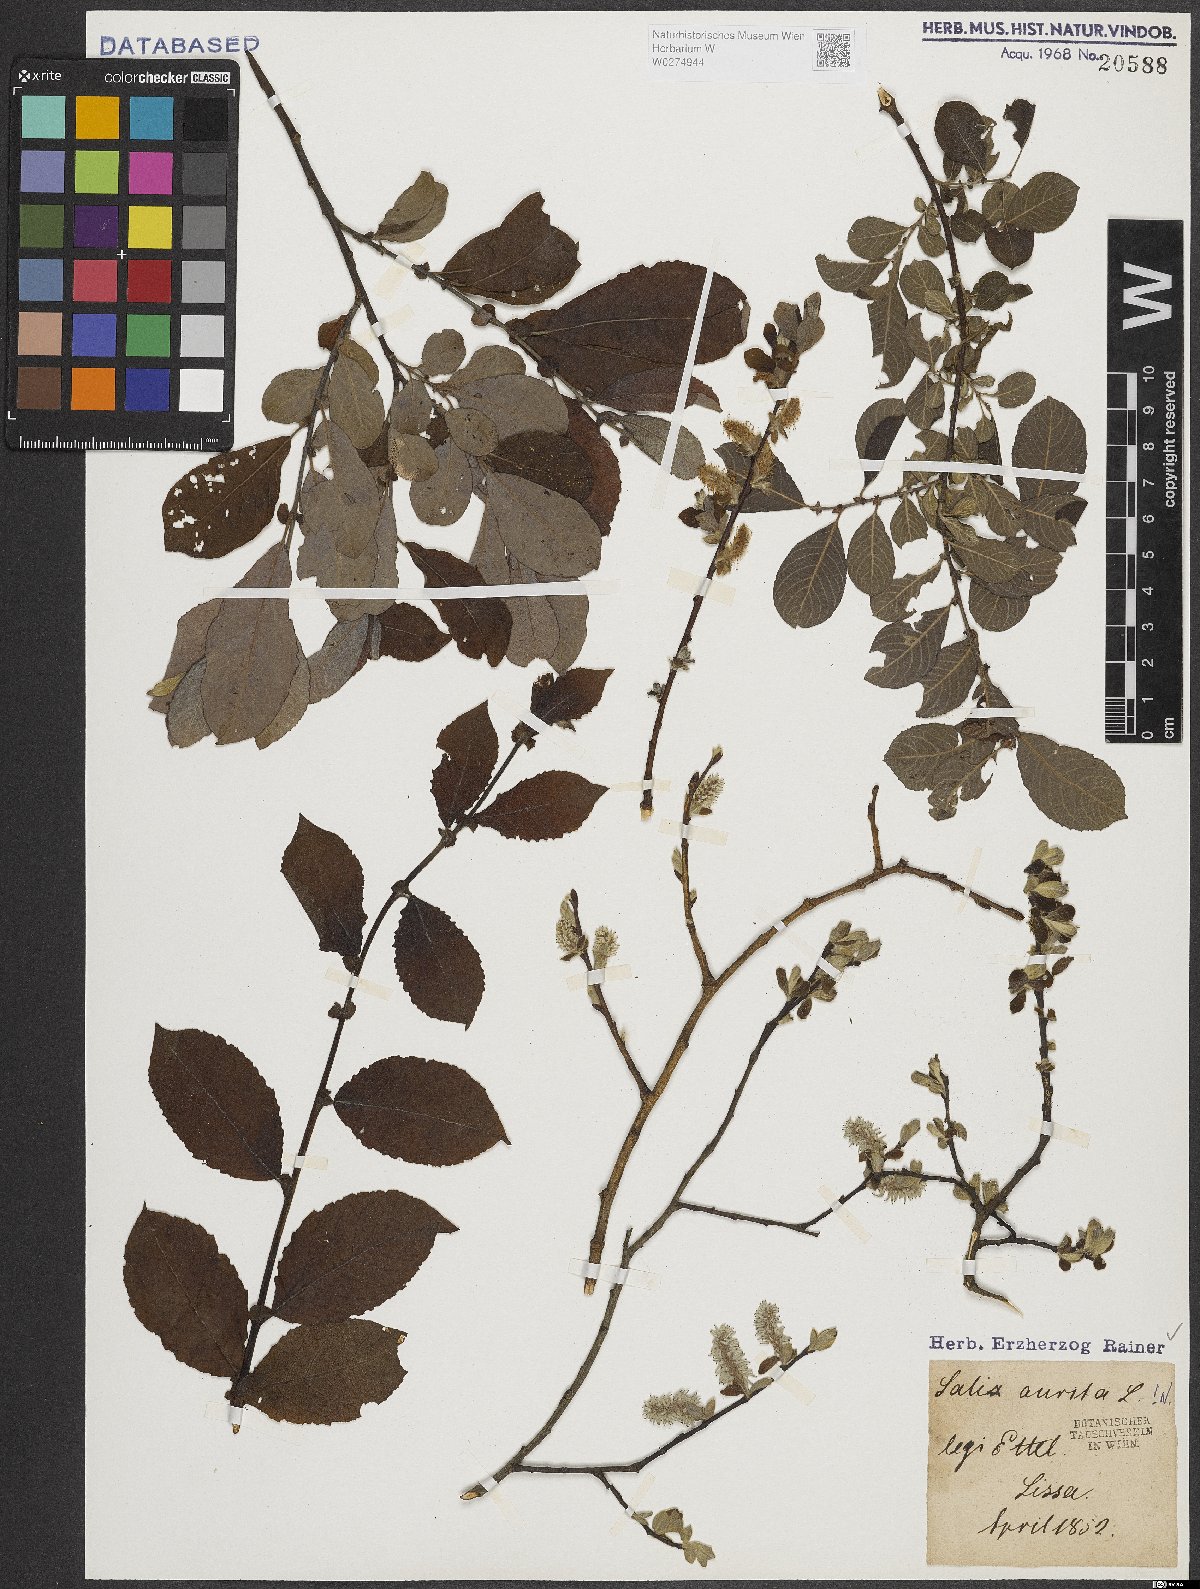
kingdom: Plantae
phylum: Tracheophyta
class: Magnoliopsida
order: Malpighiales
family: Salicaceae
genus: Salix
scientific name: Salix aurita
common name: Eared willow
